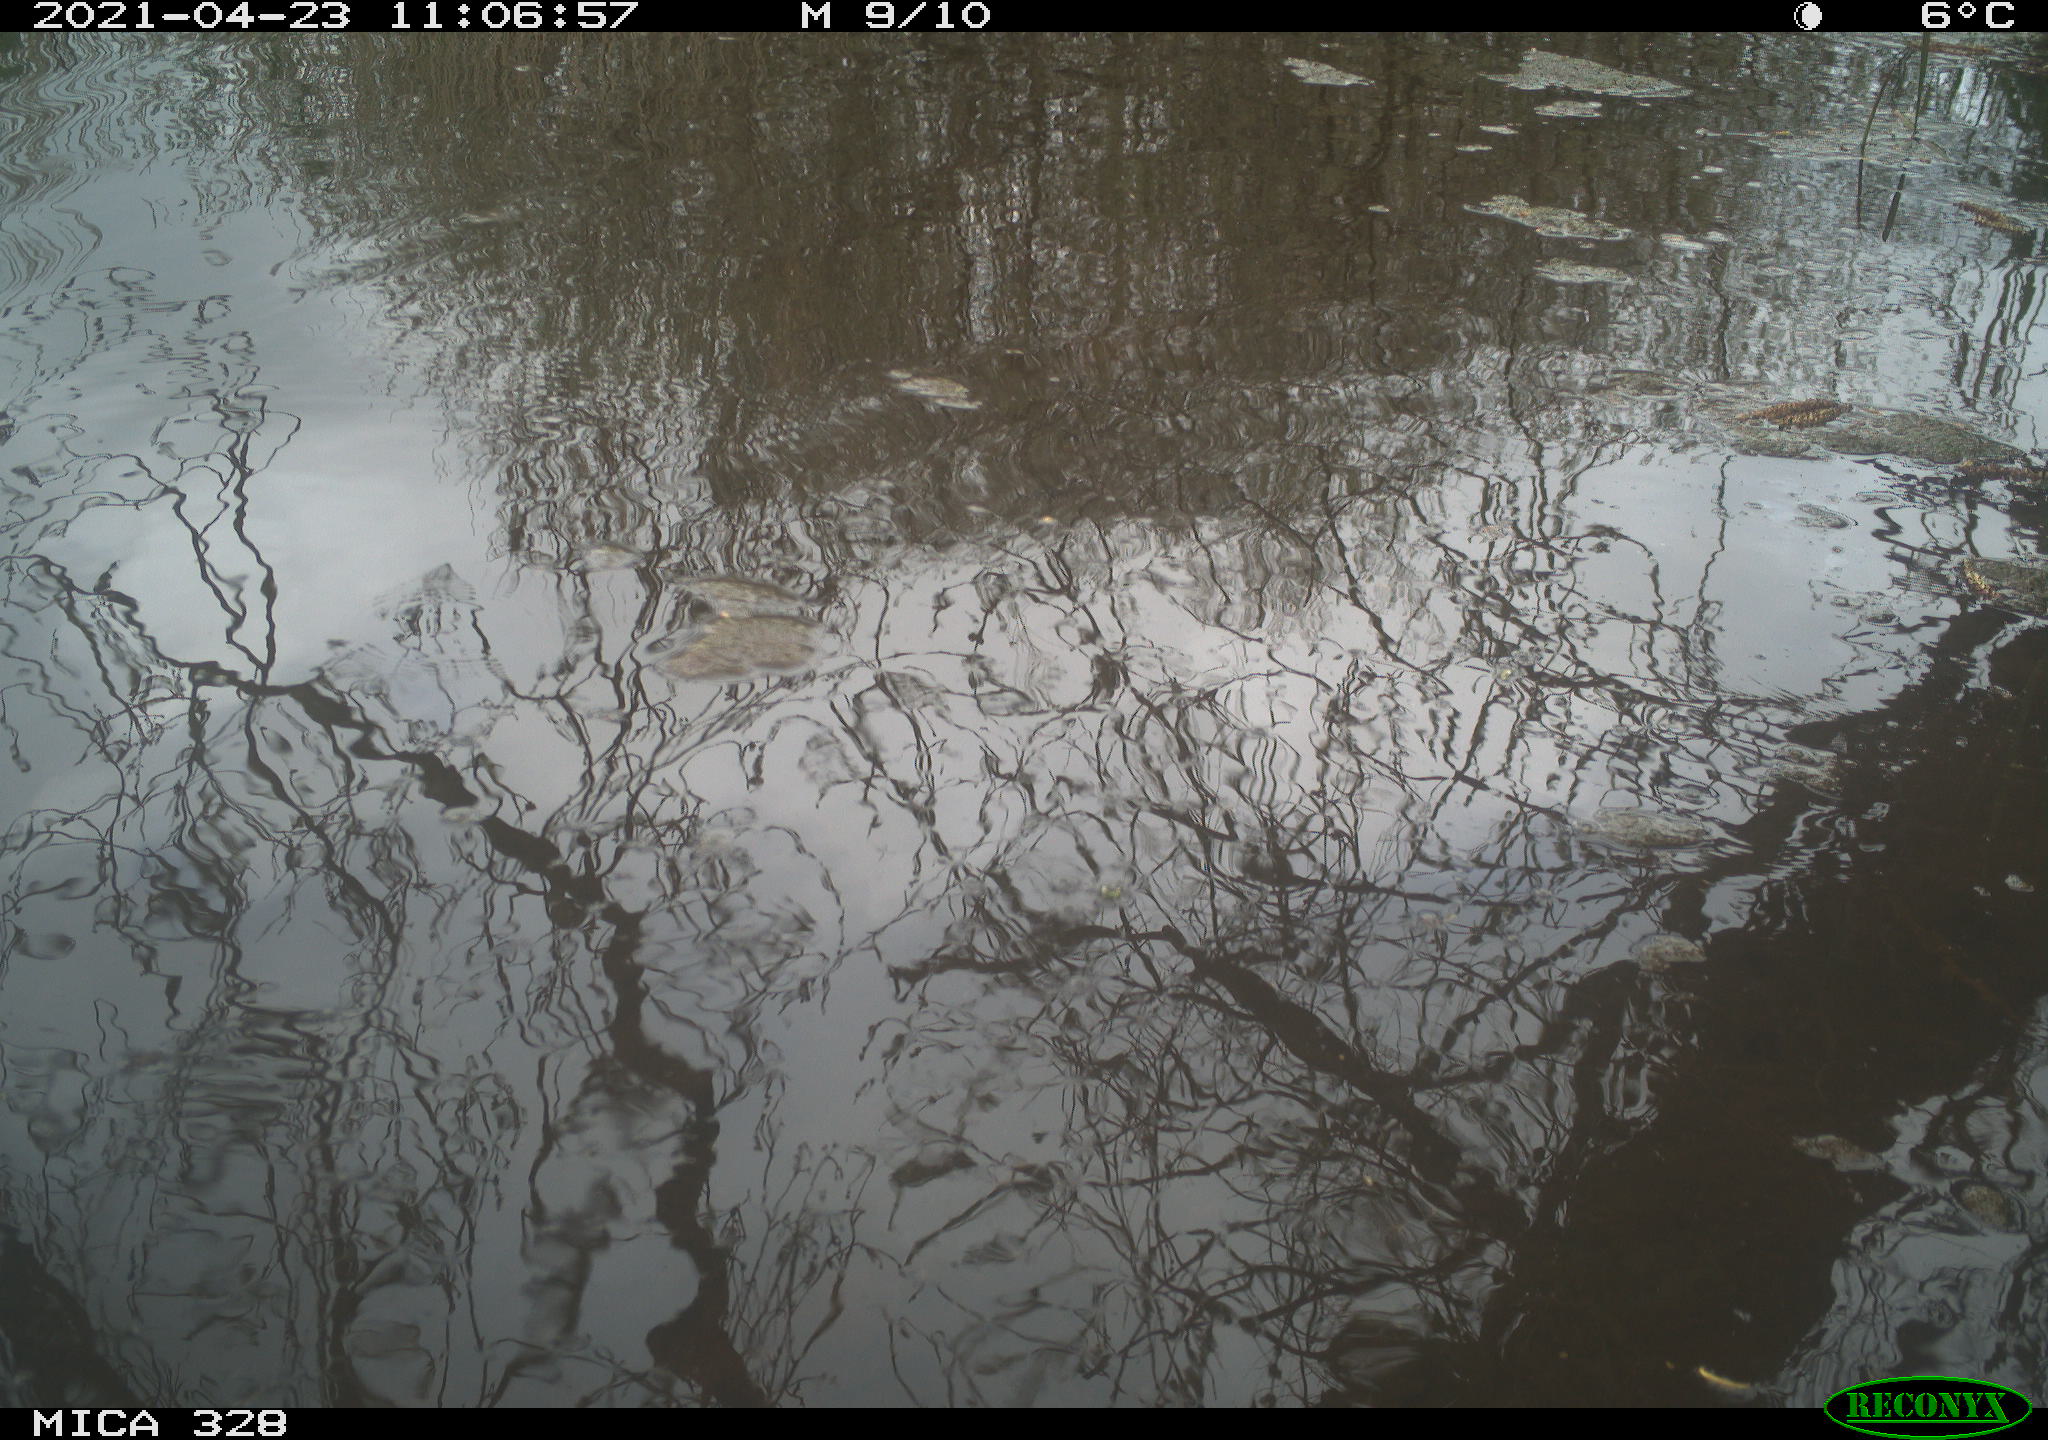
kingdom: Animalia
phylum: Chordata
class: Aves
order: Anseriformes
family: Anatidae
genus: Anas
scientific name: Anas platyrhynchos
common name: Mallard
